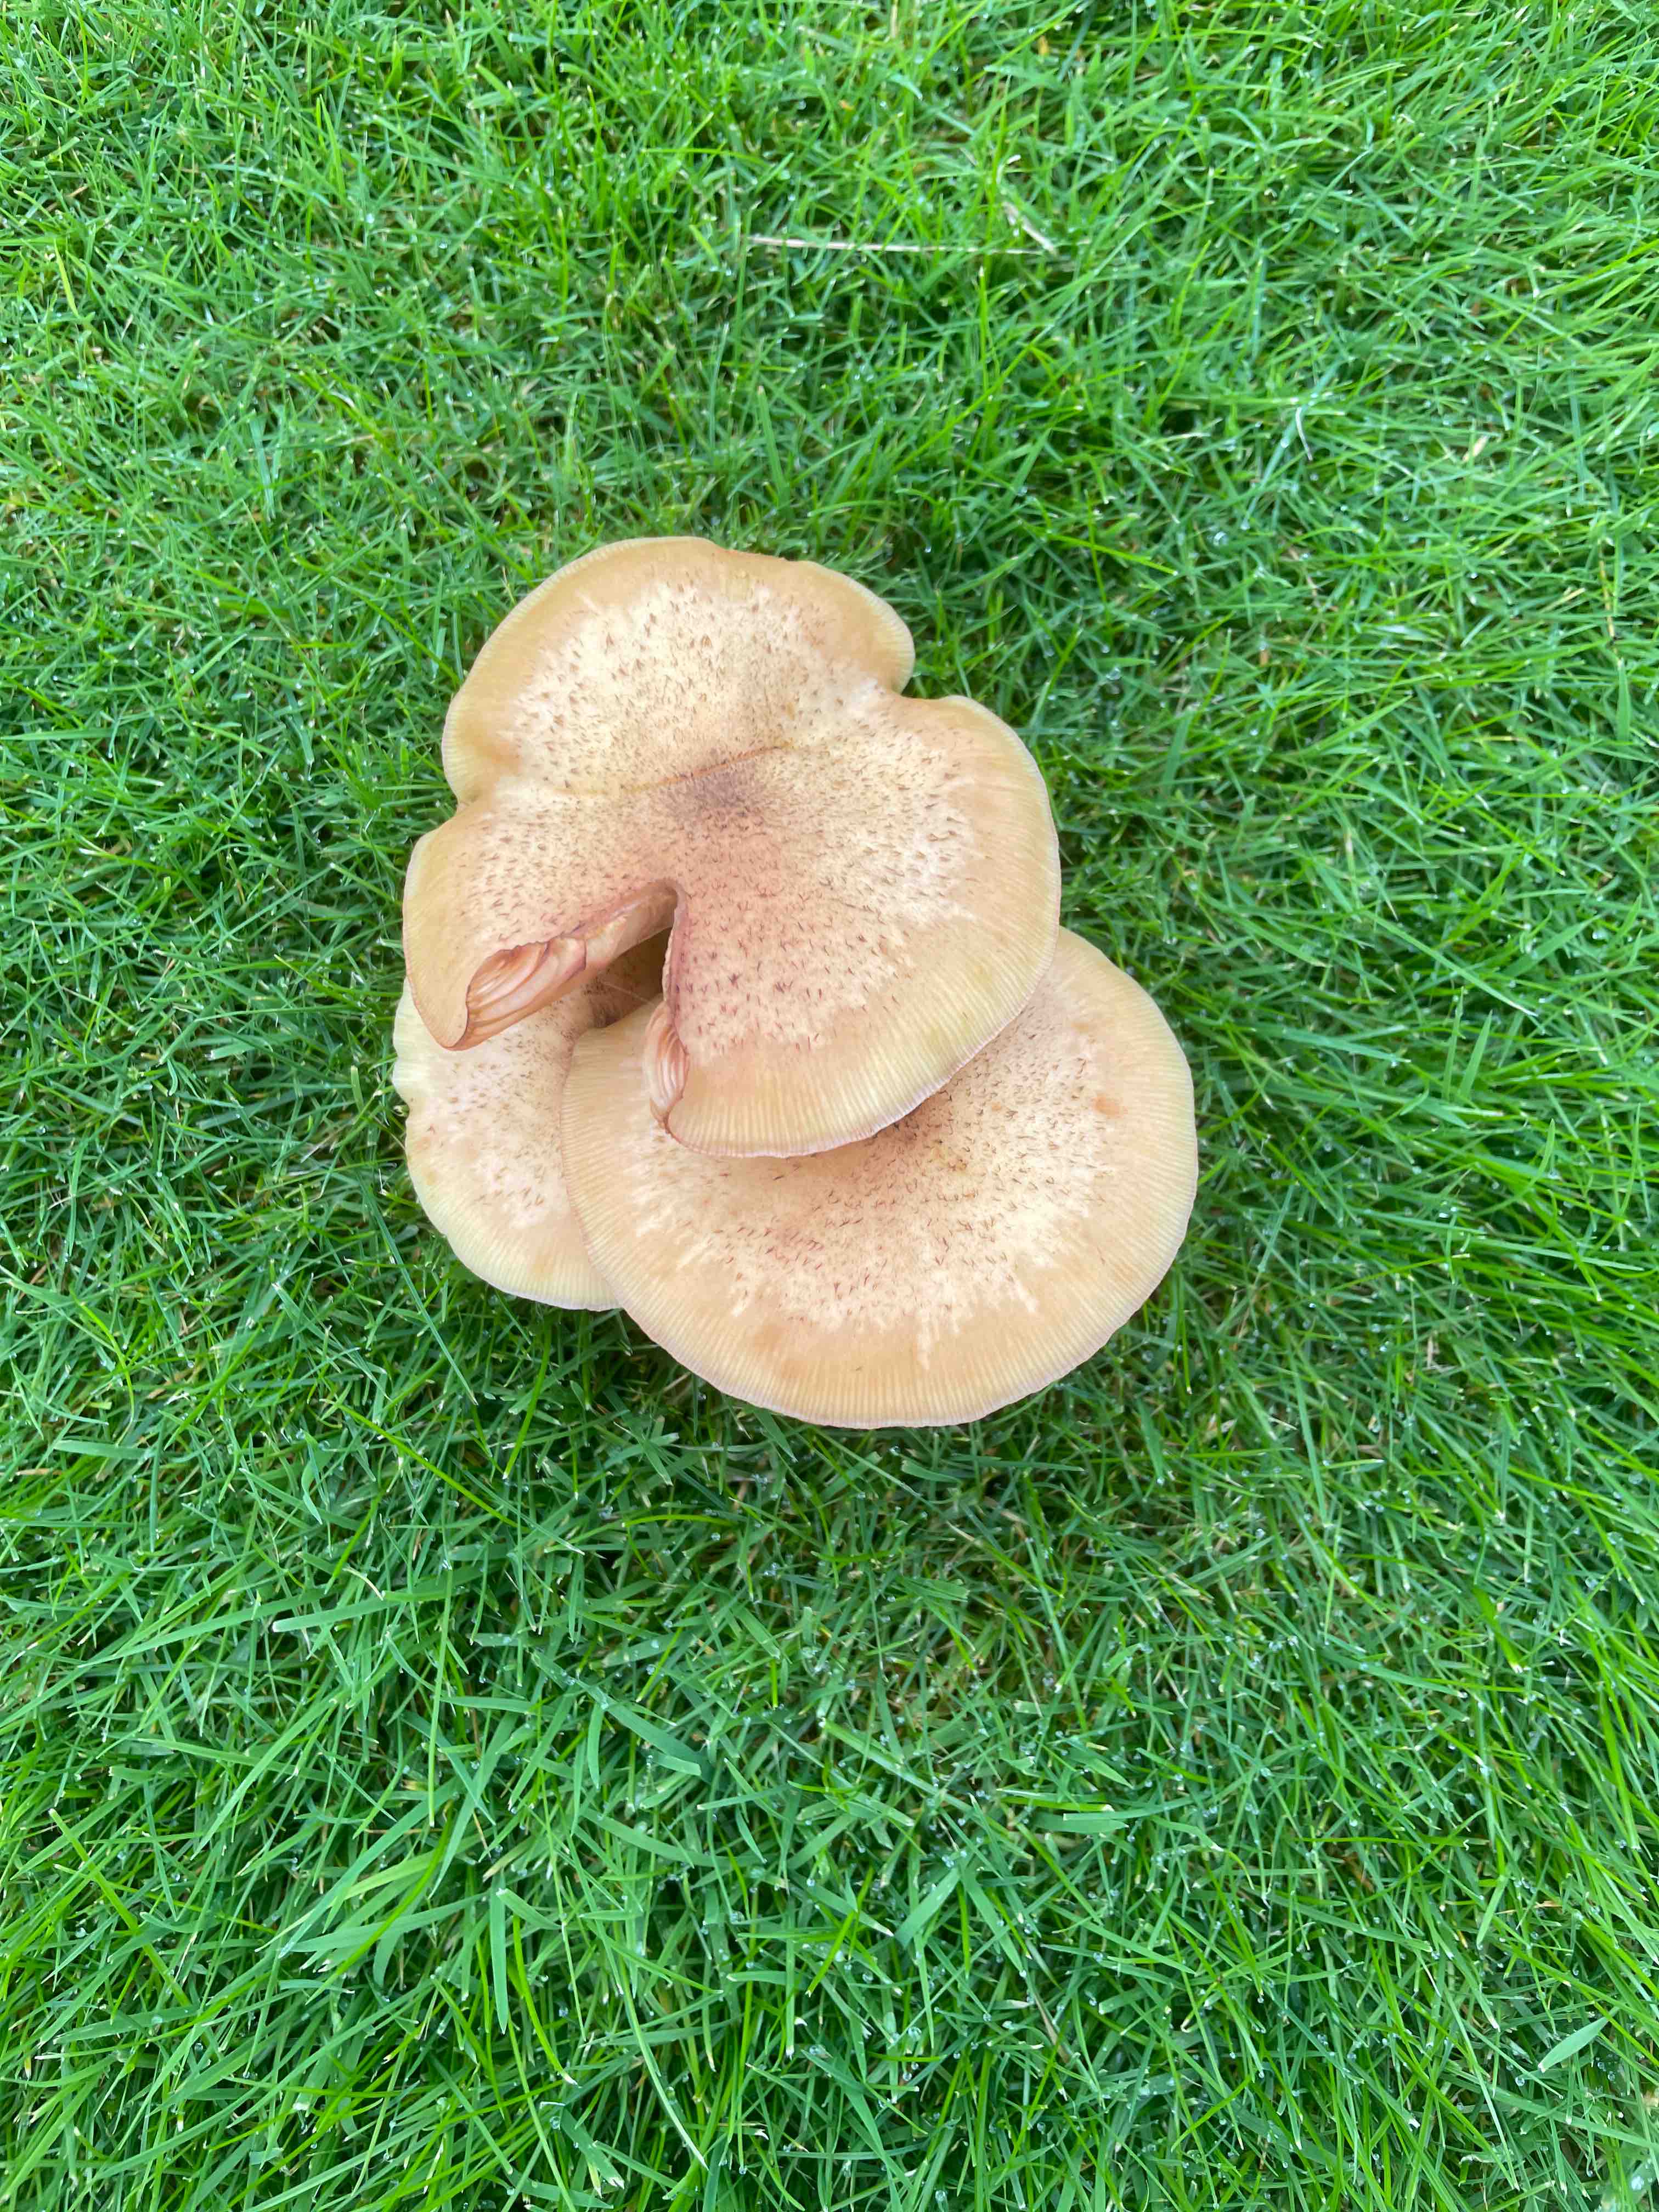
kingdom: Fungi
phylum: Basidiomycota
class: Agaricomycetes
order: Agaricales
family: Physalacriaceae
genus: Armillaria
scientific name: Armillaria
